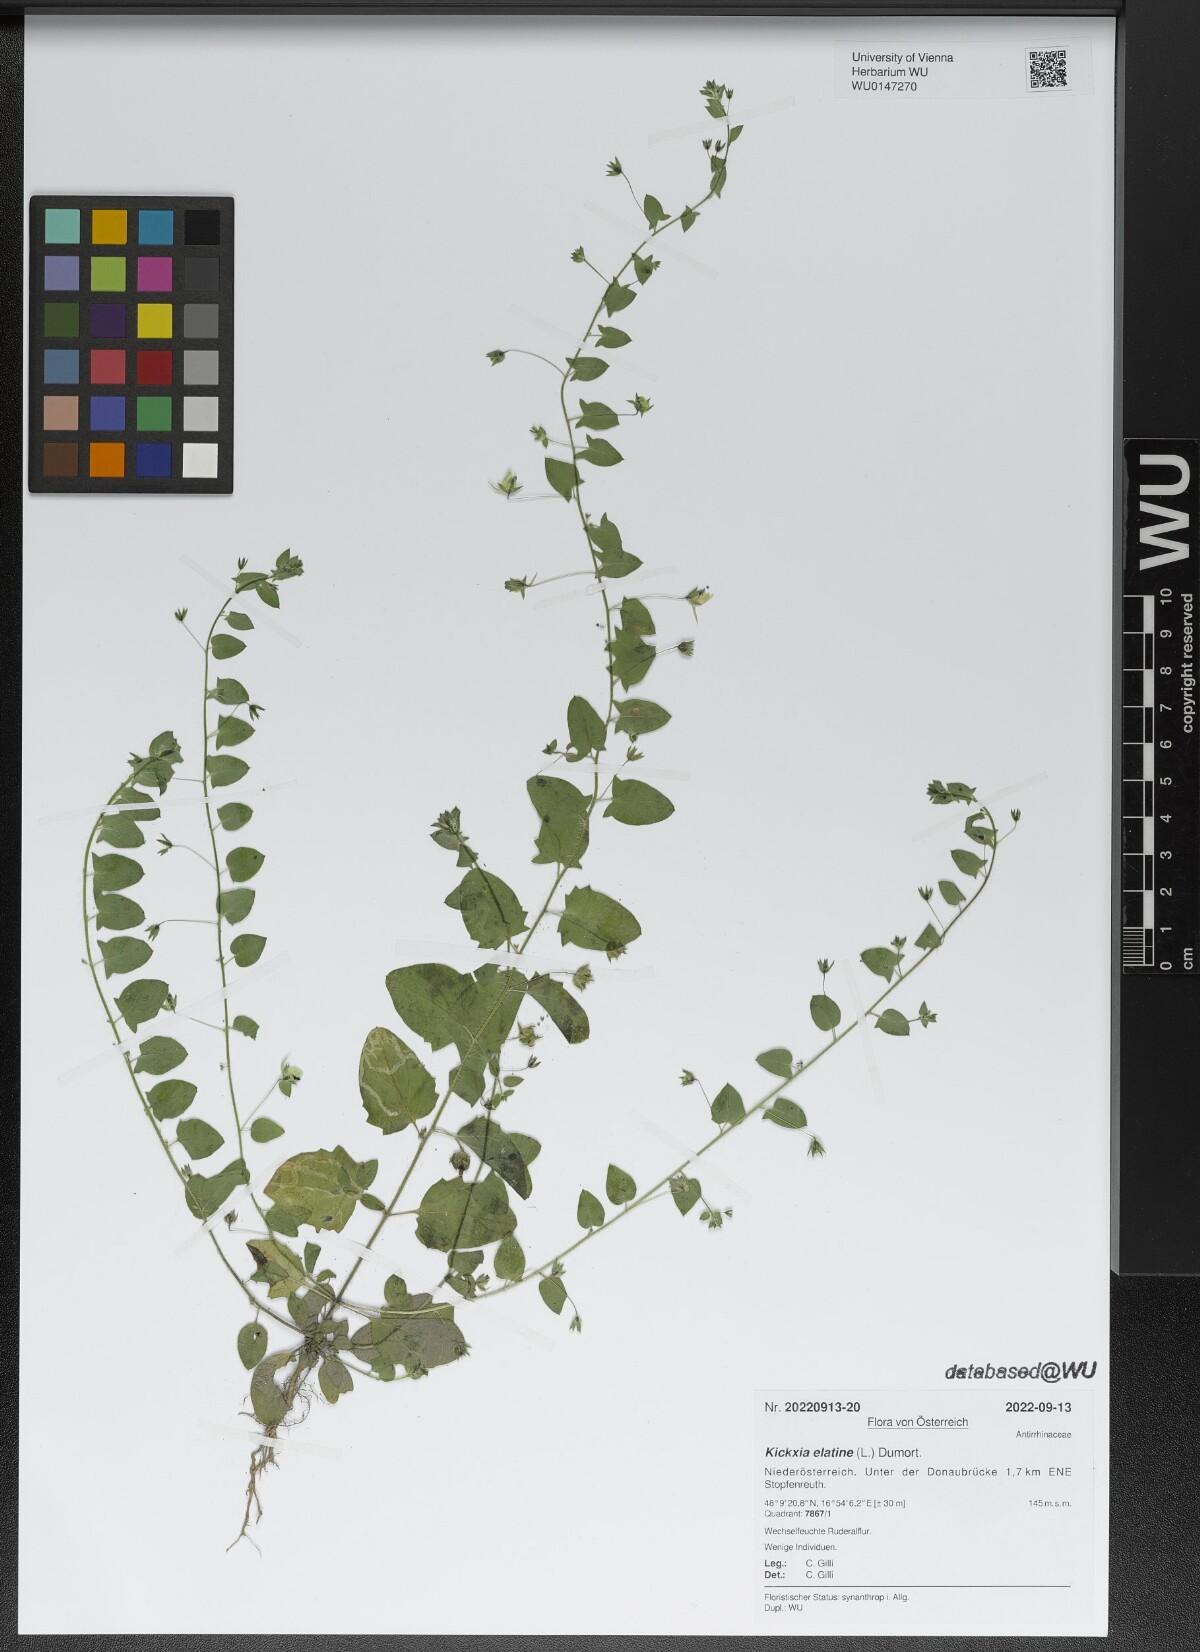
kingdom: Plantae
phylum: Tracheophyta
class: Magnoliopsida
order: Lamiales
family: Plantaginaceae
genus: Kickxia
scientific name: Kickxia elatine
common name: Sharp-leaved fluellen
